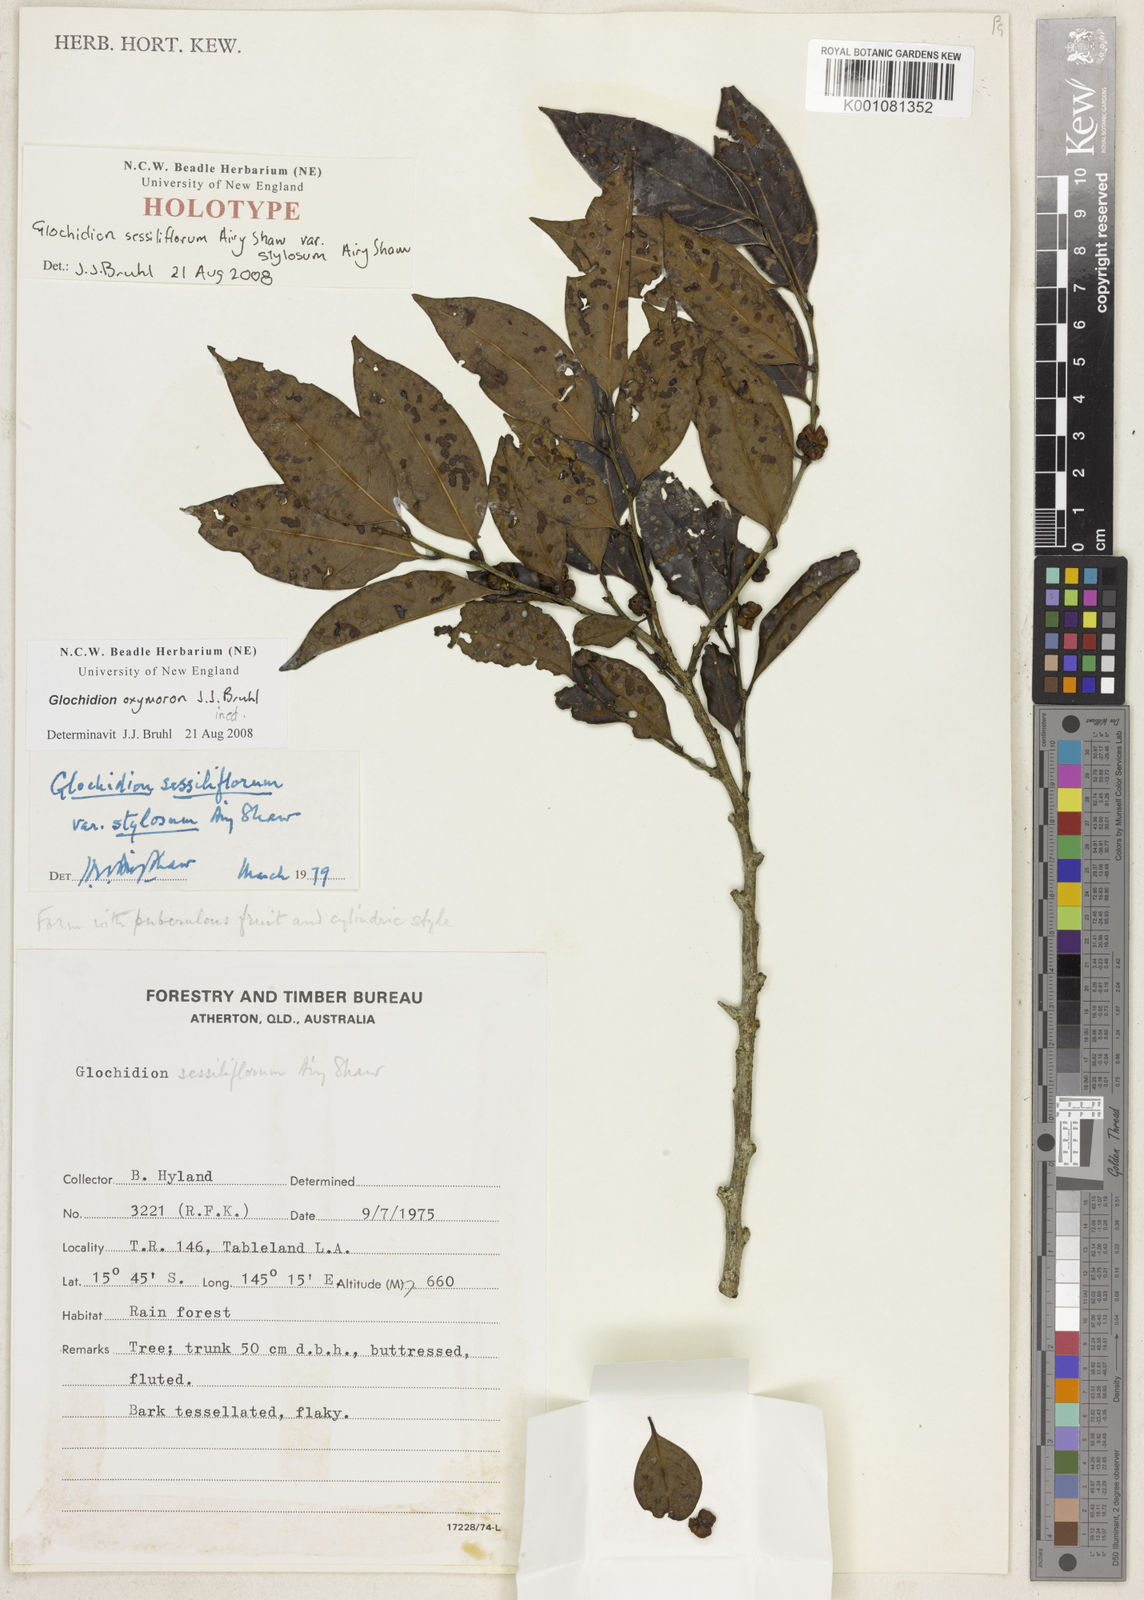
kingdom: Plantae
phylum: Tracheophyta
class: Magnoliopsida
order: Malpighiales
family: Phyllanthaceae
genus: Glochidion
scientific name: Glochidion
